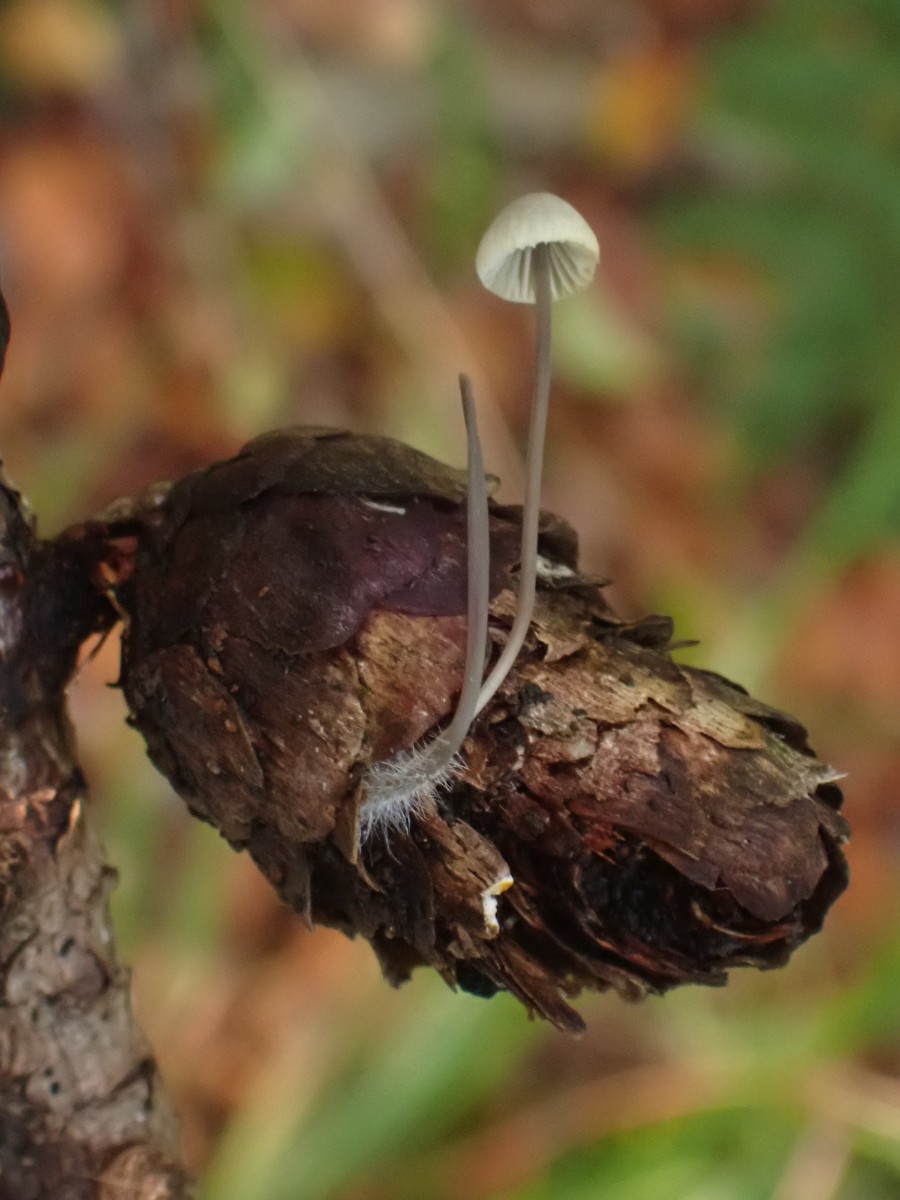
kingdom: Fungi
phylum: Basidiomycota
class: Agaricomycetes
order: Agaricales
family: Mycenaceae
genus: Mycena
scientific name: Mycena arcangeliana
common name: oliven-huesvamp
